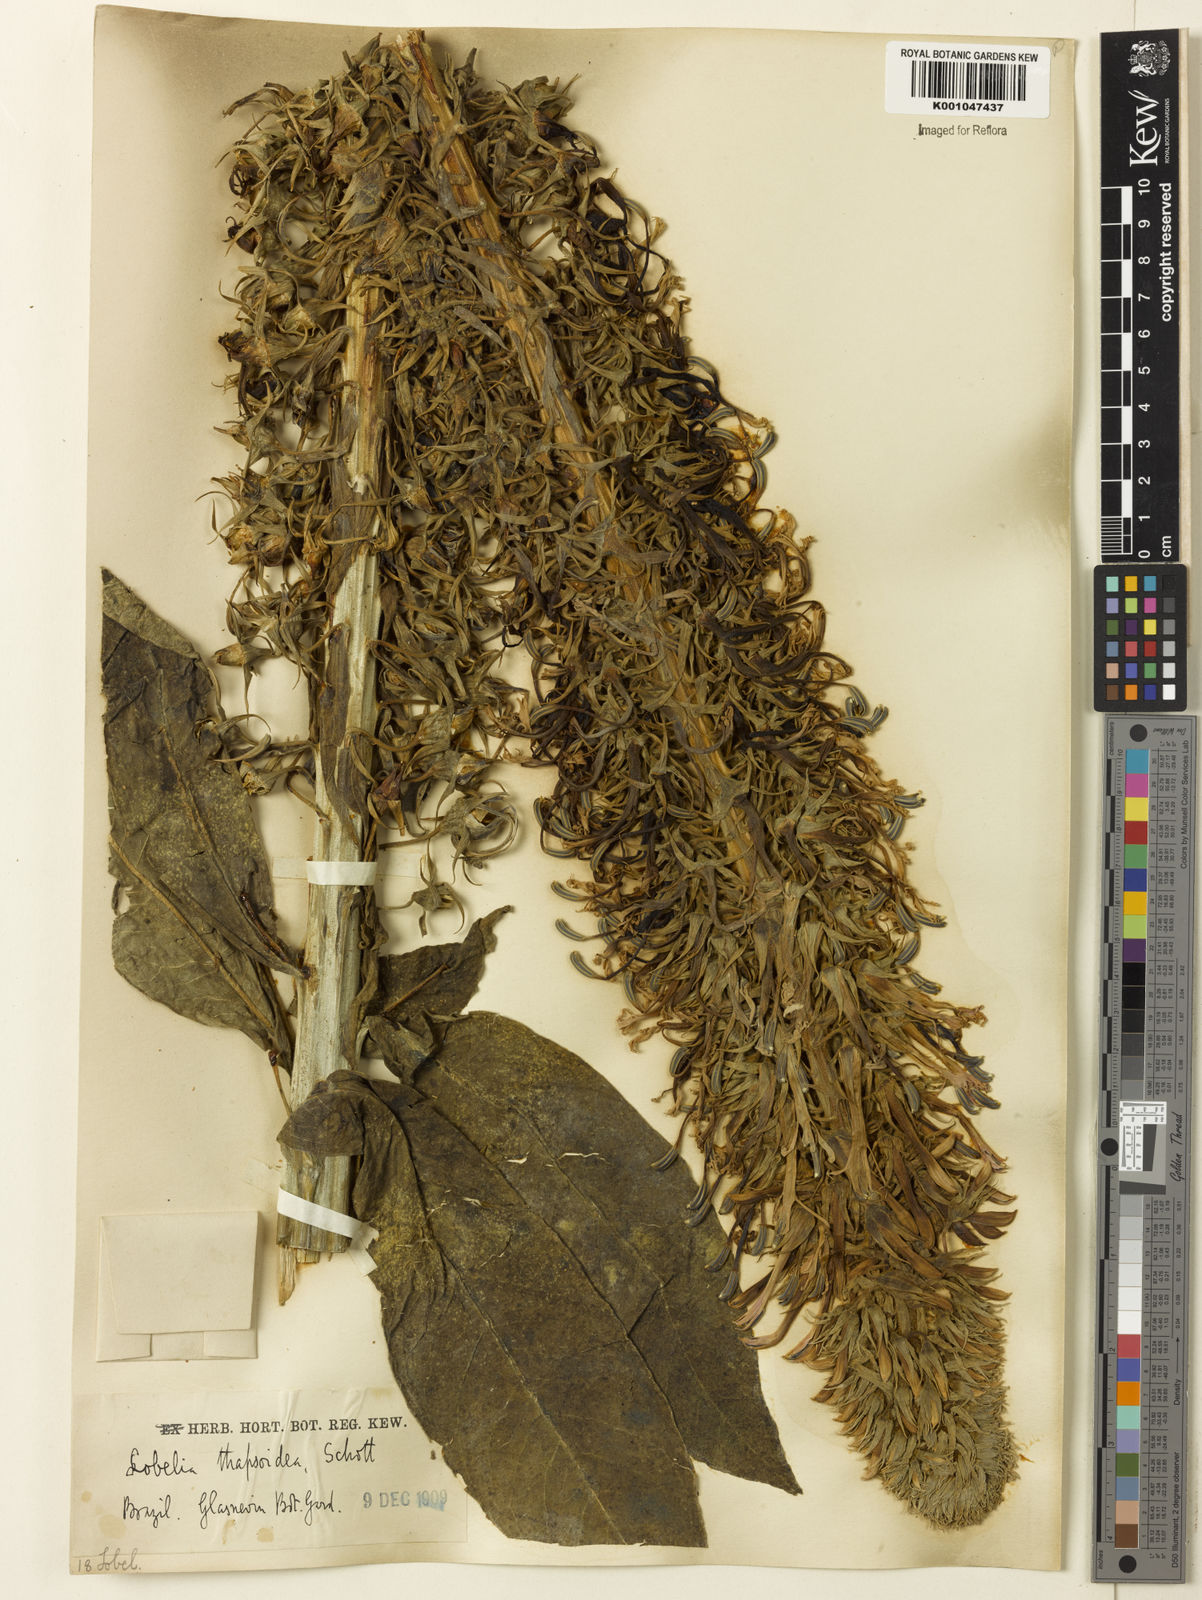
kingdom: Plantae
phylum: Tracheophyta
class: Magnoliopsida
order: Asterales
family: Campanulaceae
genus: Lobelia
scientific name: Lobelia
